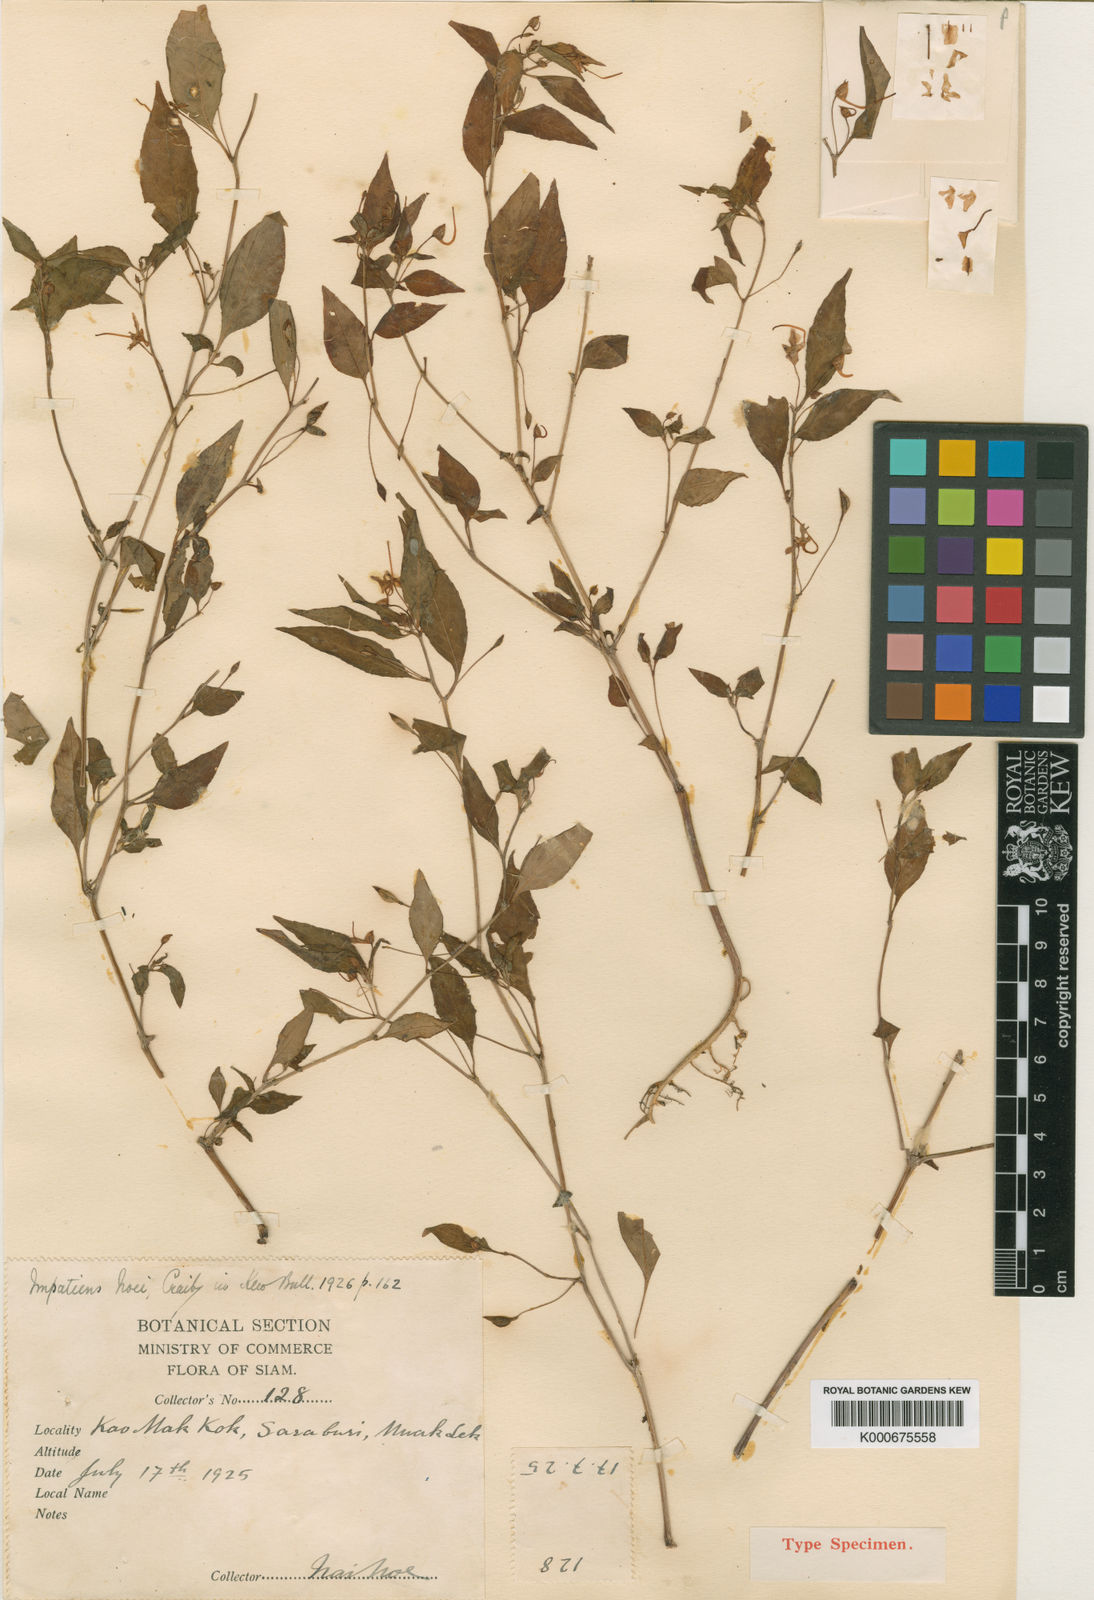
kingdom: Plantae
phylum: Tracheophyta
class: Magnoliopsida
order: Ericales
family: Balsaminaceae
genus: Impatiens
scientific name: Impatiens noei
